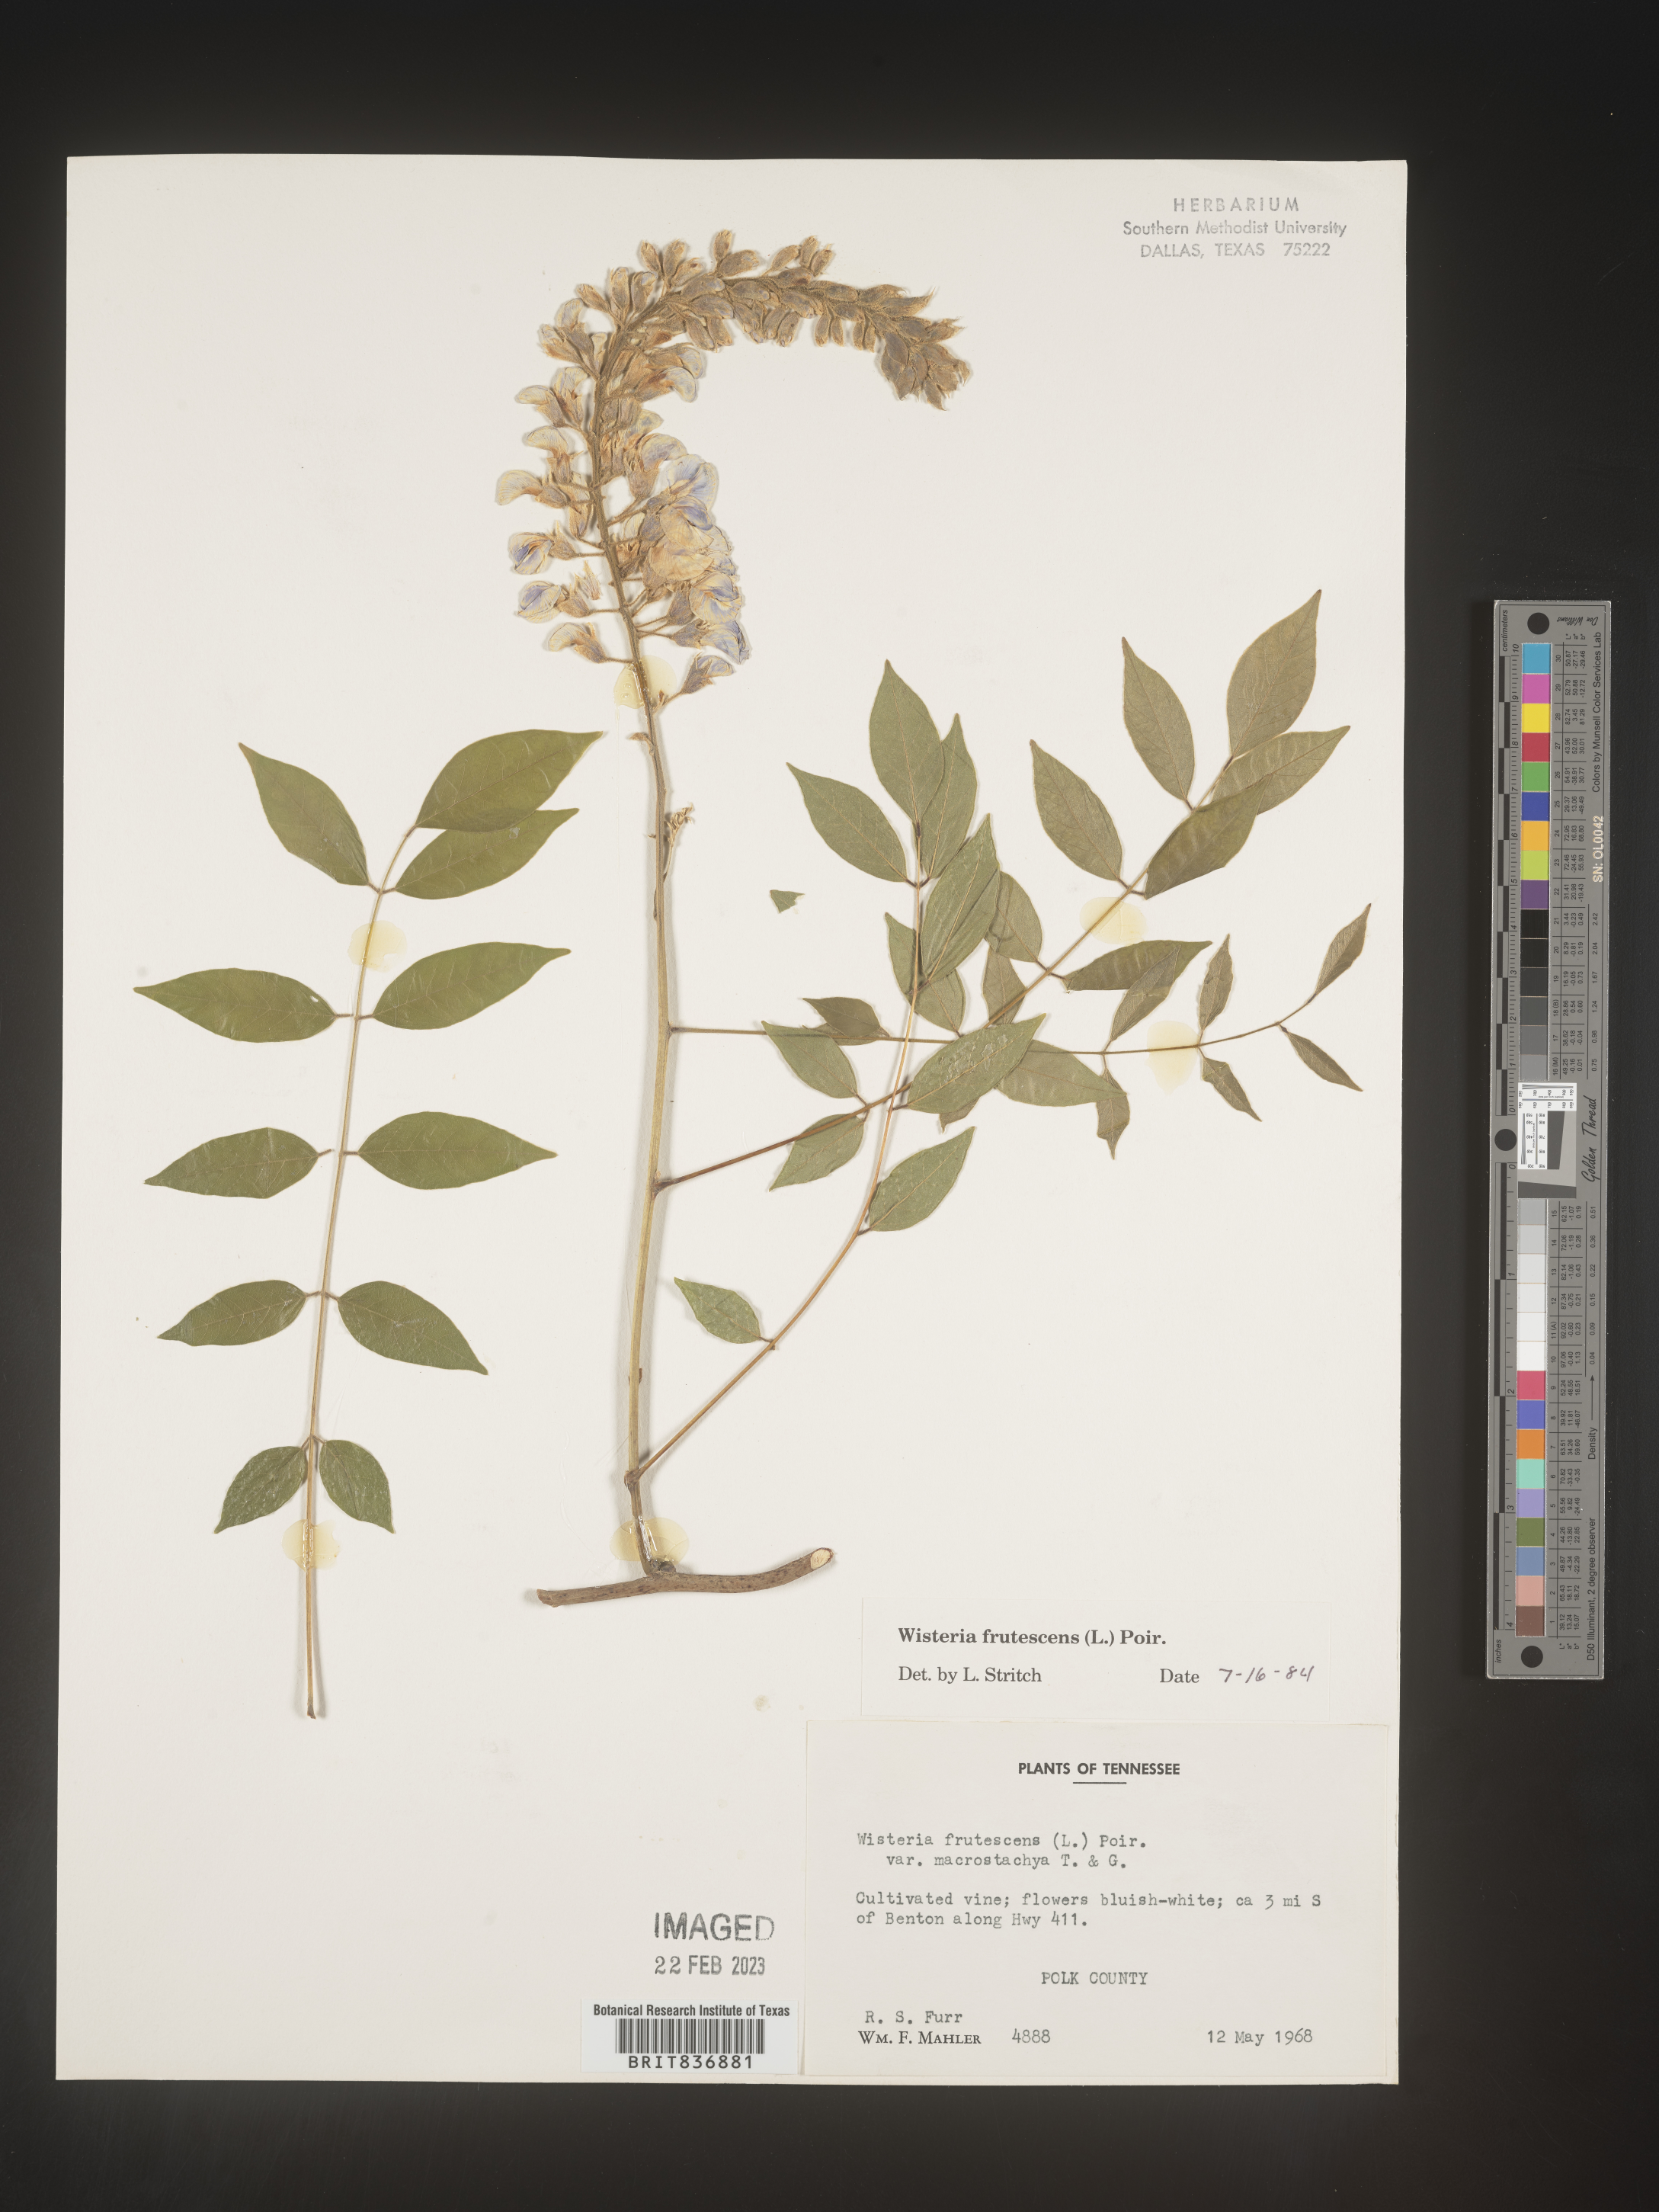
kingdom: Plantae
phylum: Tracheophyta
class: Magnoliopsida
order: Fabales
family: Fabaceae
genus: Wisteria
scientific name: Wisteria
